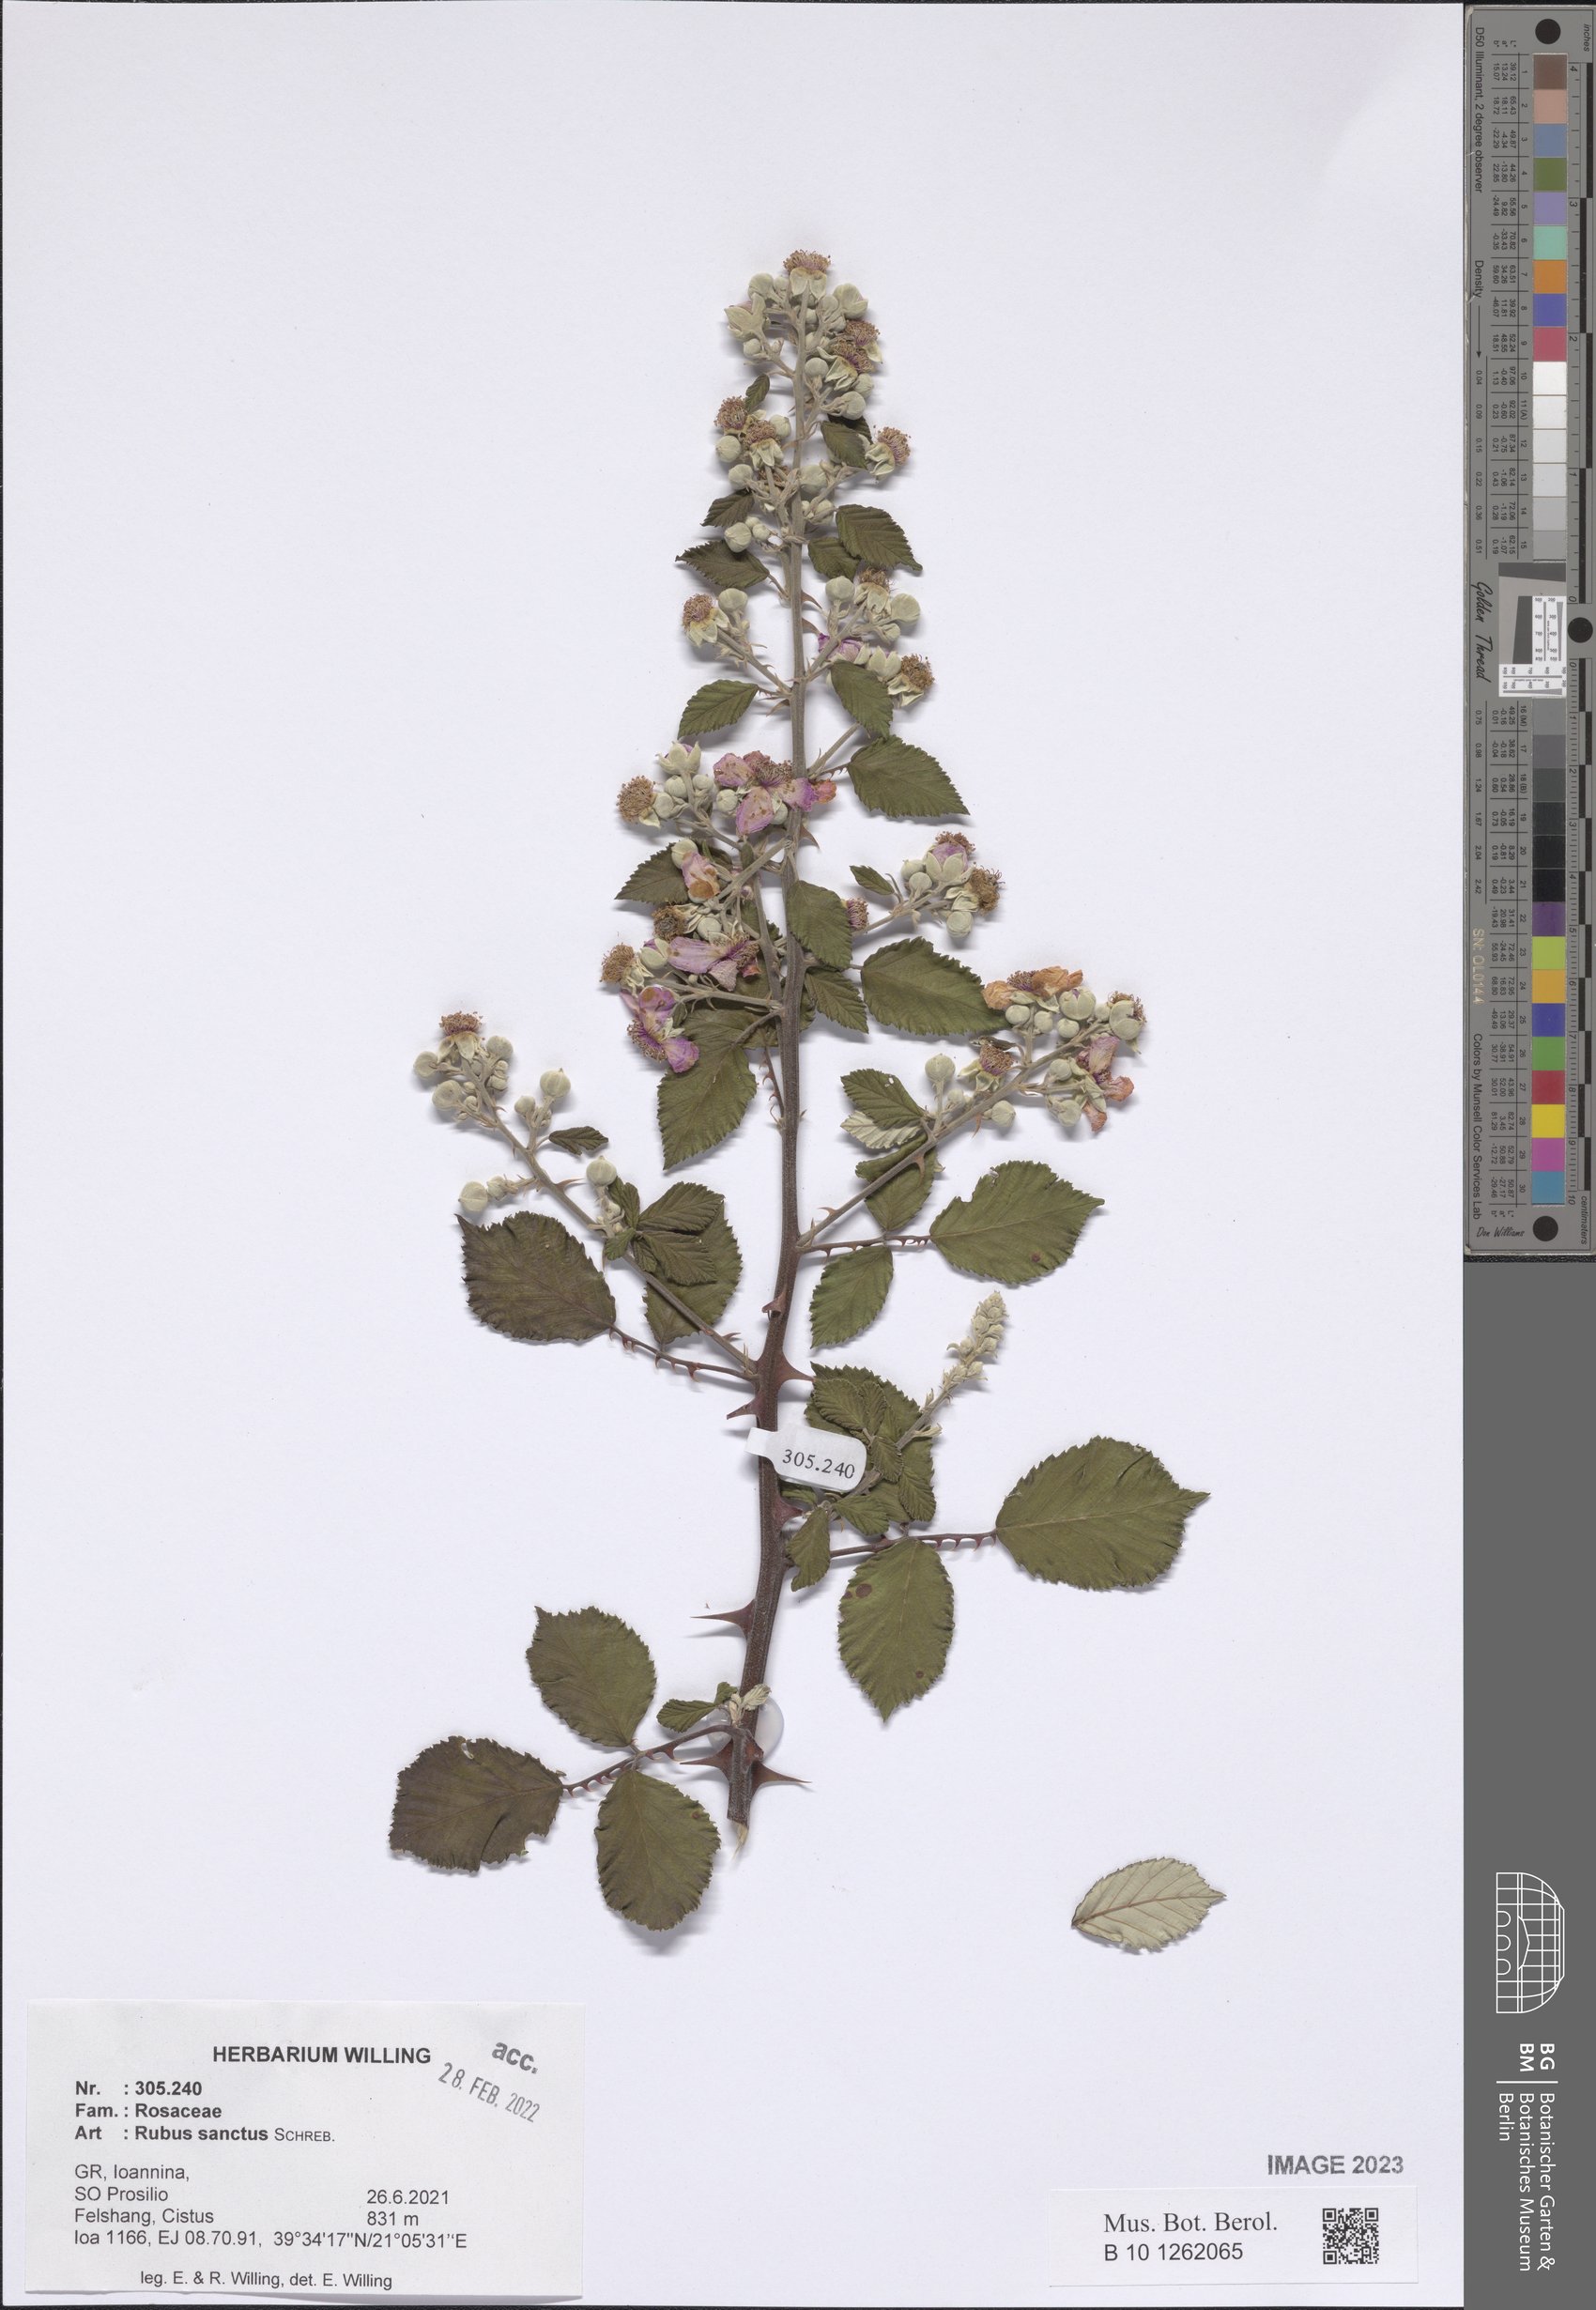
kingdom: Plantae
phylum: Tracheophyta
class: Magnoliopsida
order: Rosales
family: Rosaceae
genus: Rubus
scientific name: Rubus sanctus
